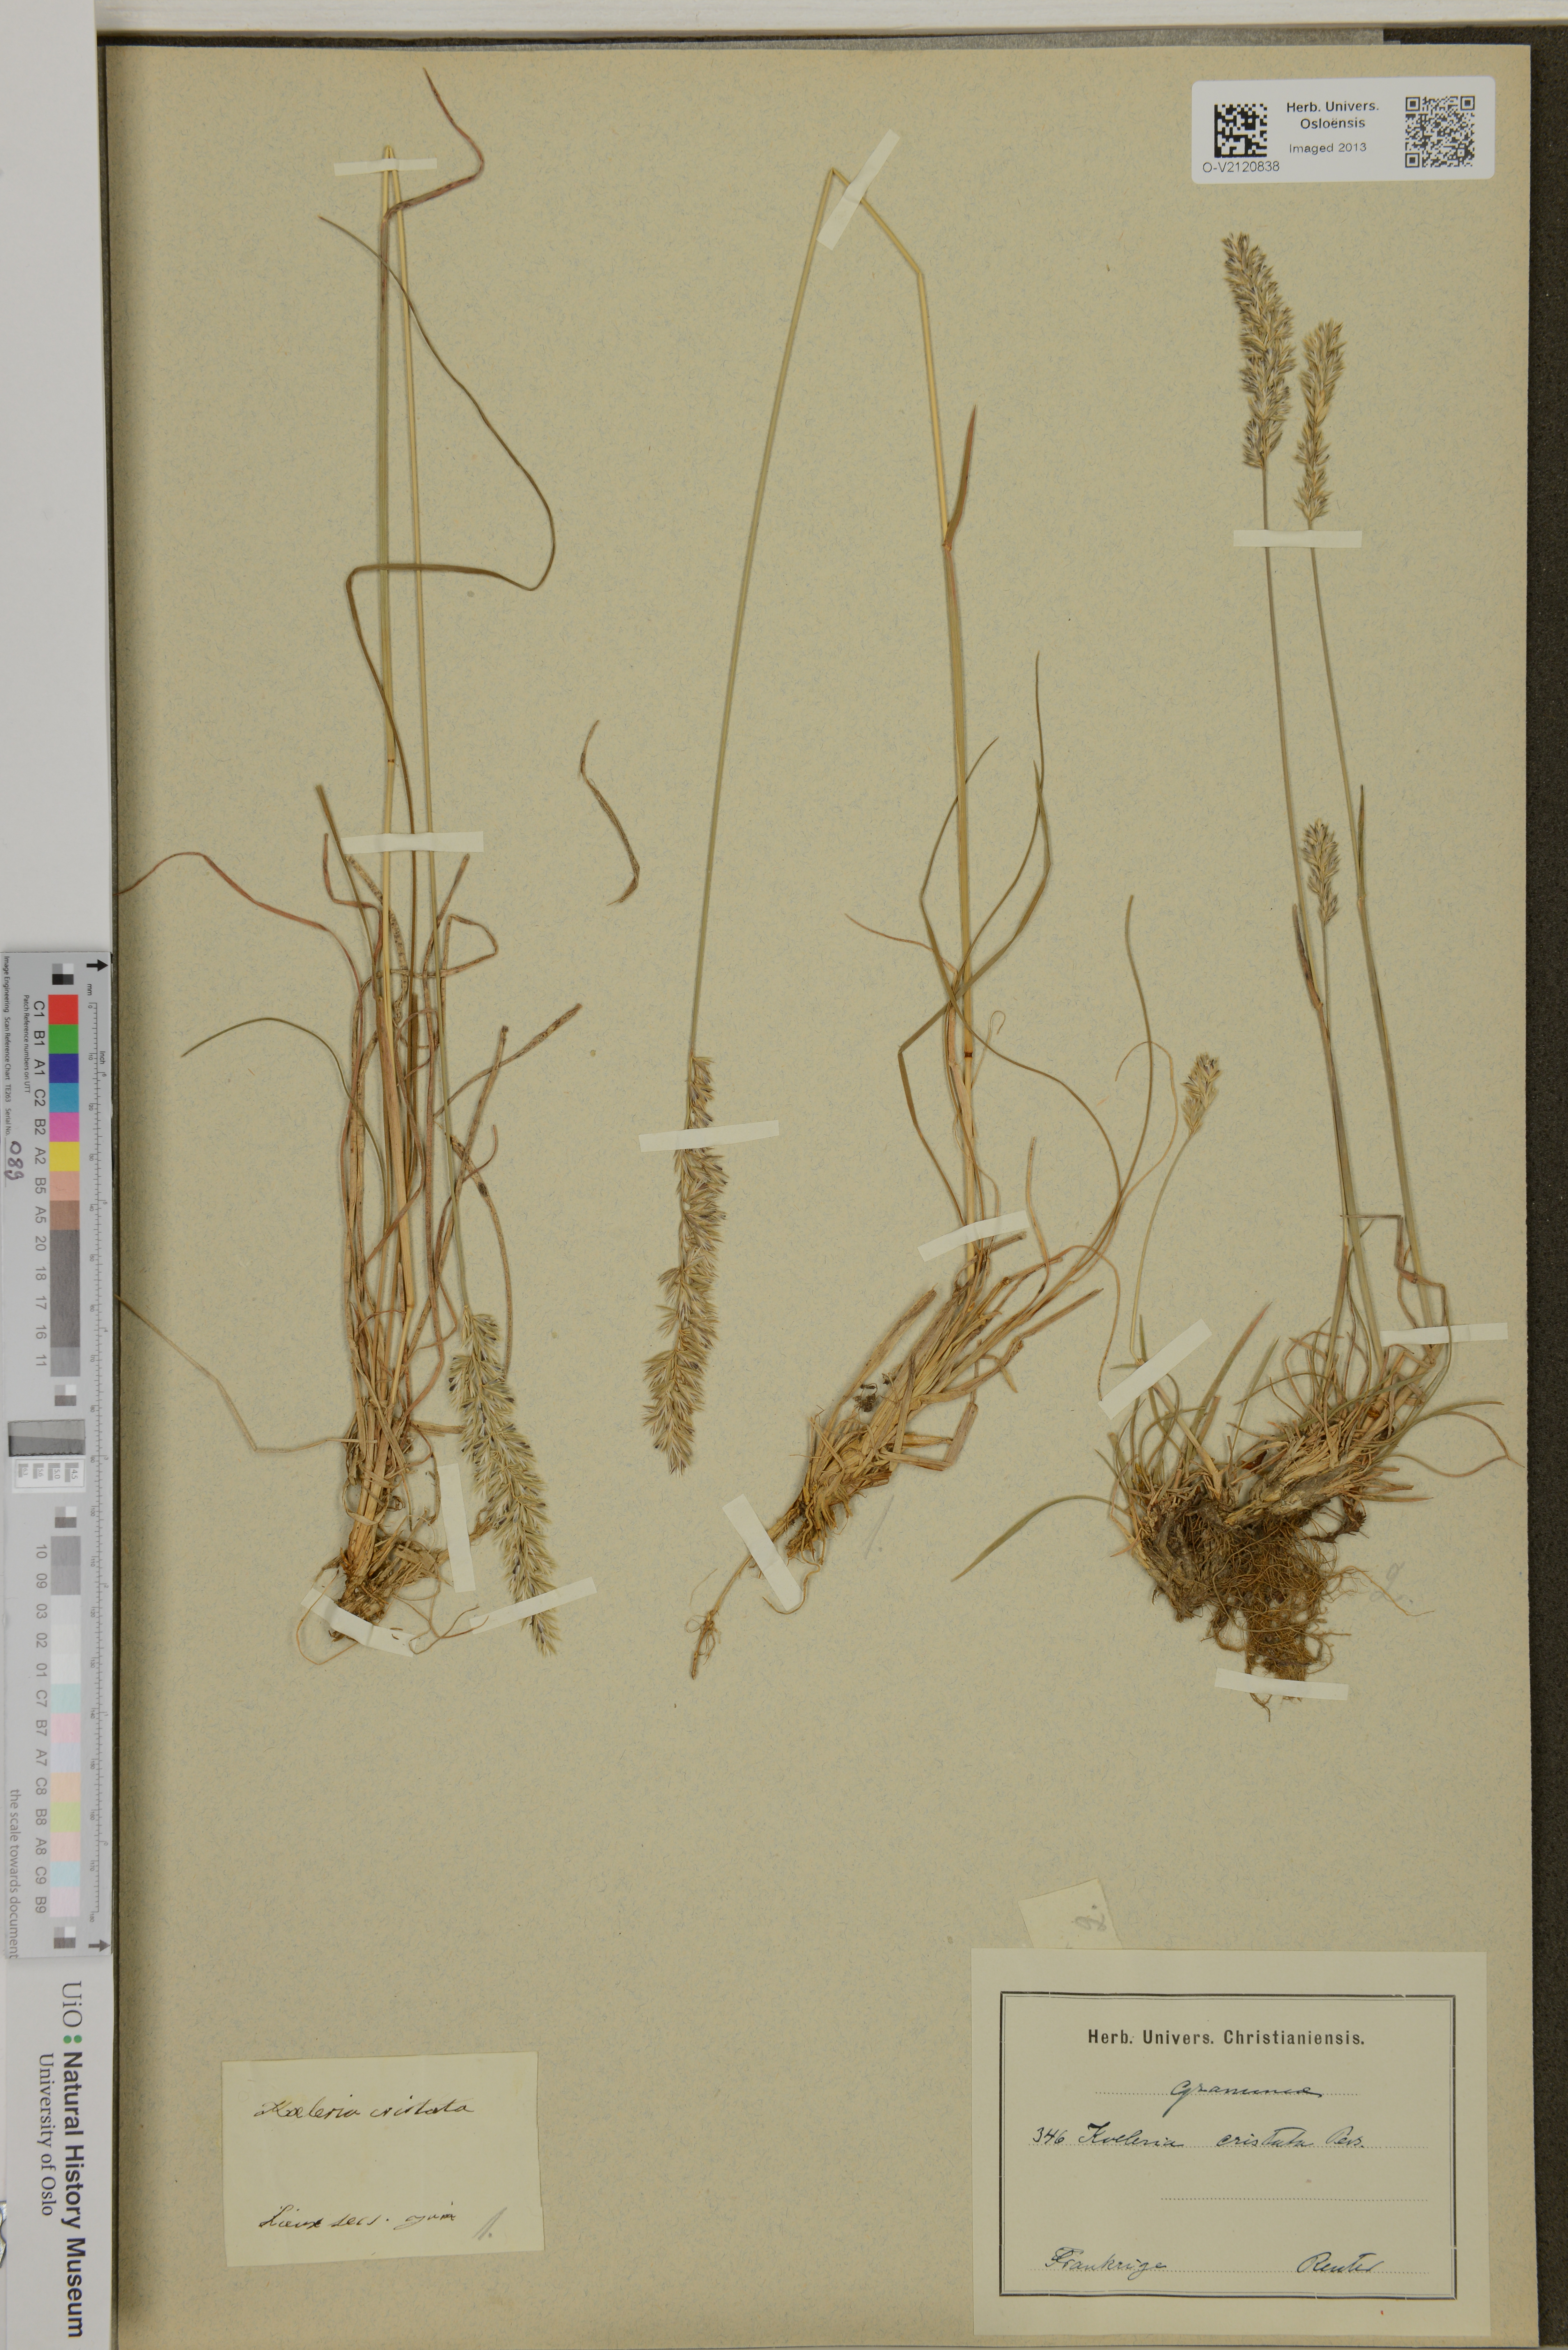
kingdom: Plantae
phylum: Tracheophyta
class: Liliopsida
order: Poales
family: Poaceae
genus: Koeleria
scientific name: Koeleria pyramidata
